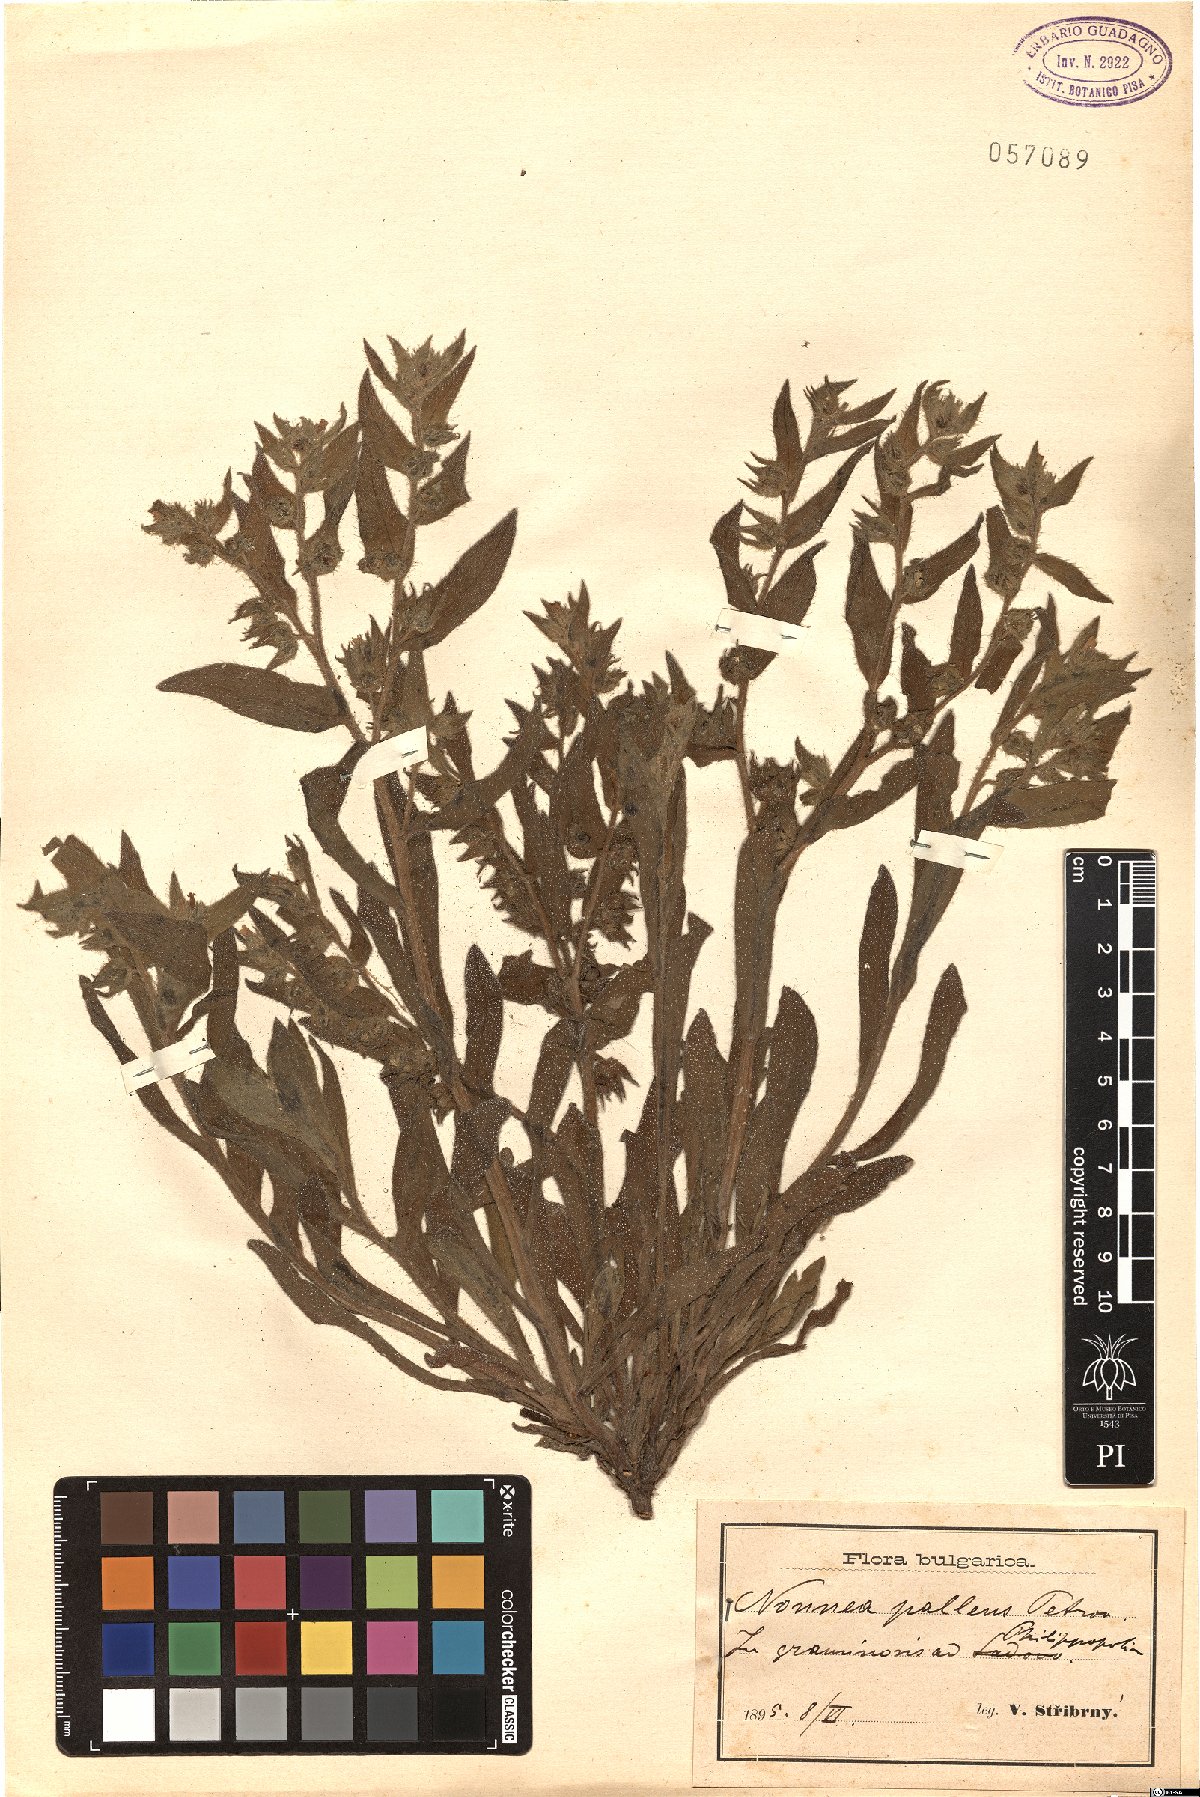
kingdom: Plantae
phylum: Tracheophyta
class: Magnoliopsida
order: Boraginales
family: Boraginaceae
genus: Nonea
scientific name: Nonea pallens
